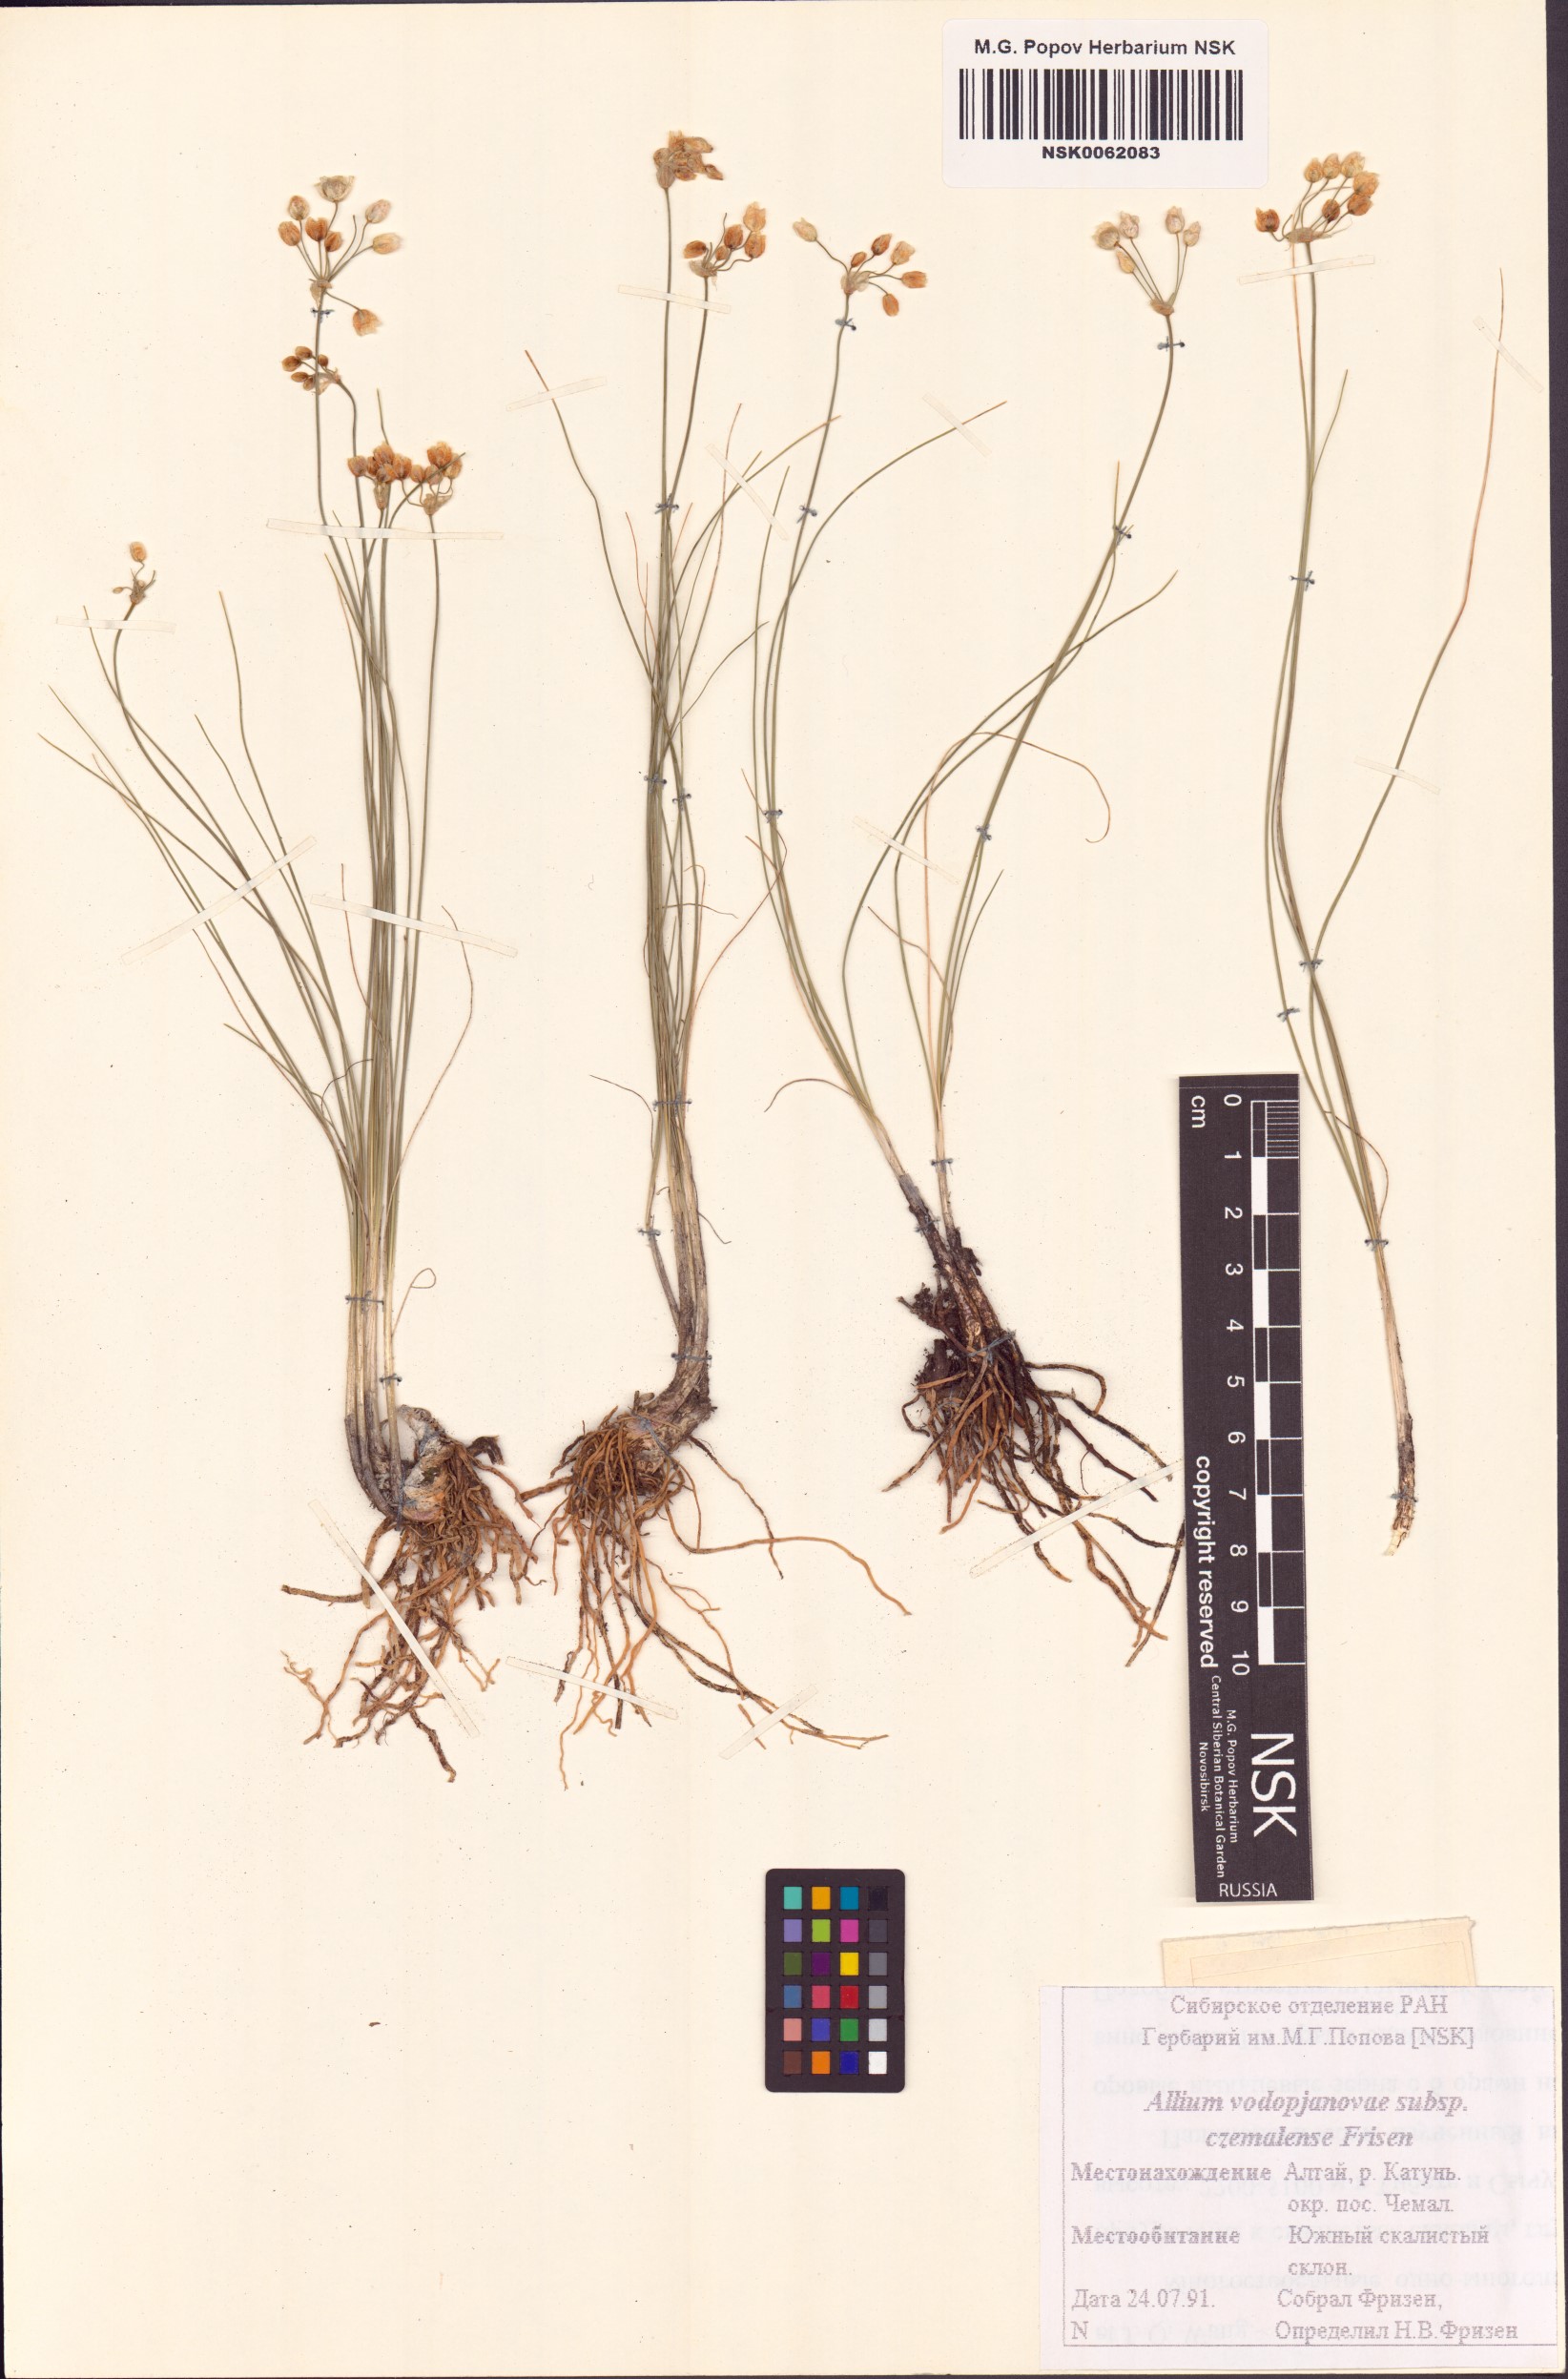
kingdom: Plantae
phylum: Tracheophyta
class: Liliopsida
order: Asparagales
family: Amaryllidaceae
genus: Allium
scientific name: Allium vodopjanovae
